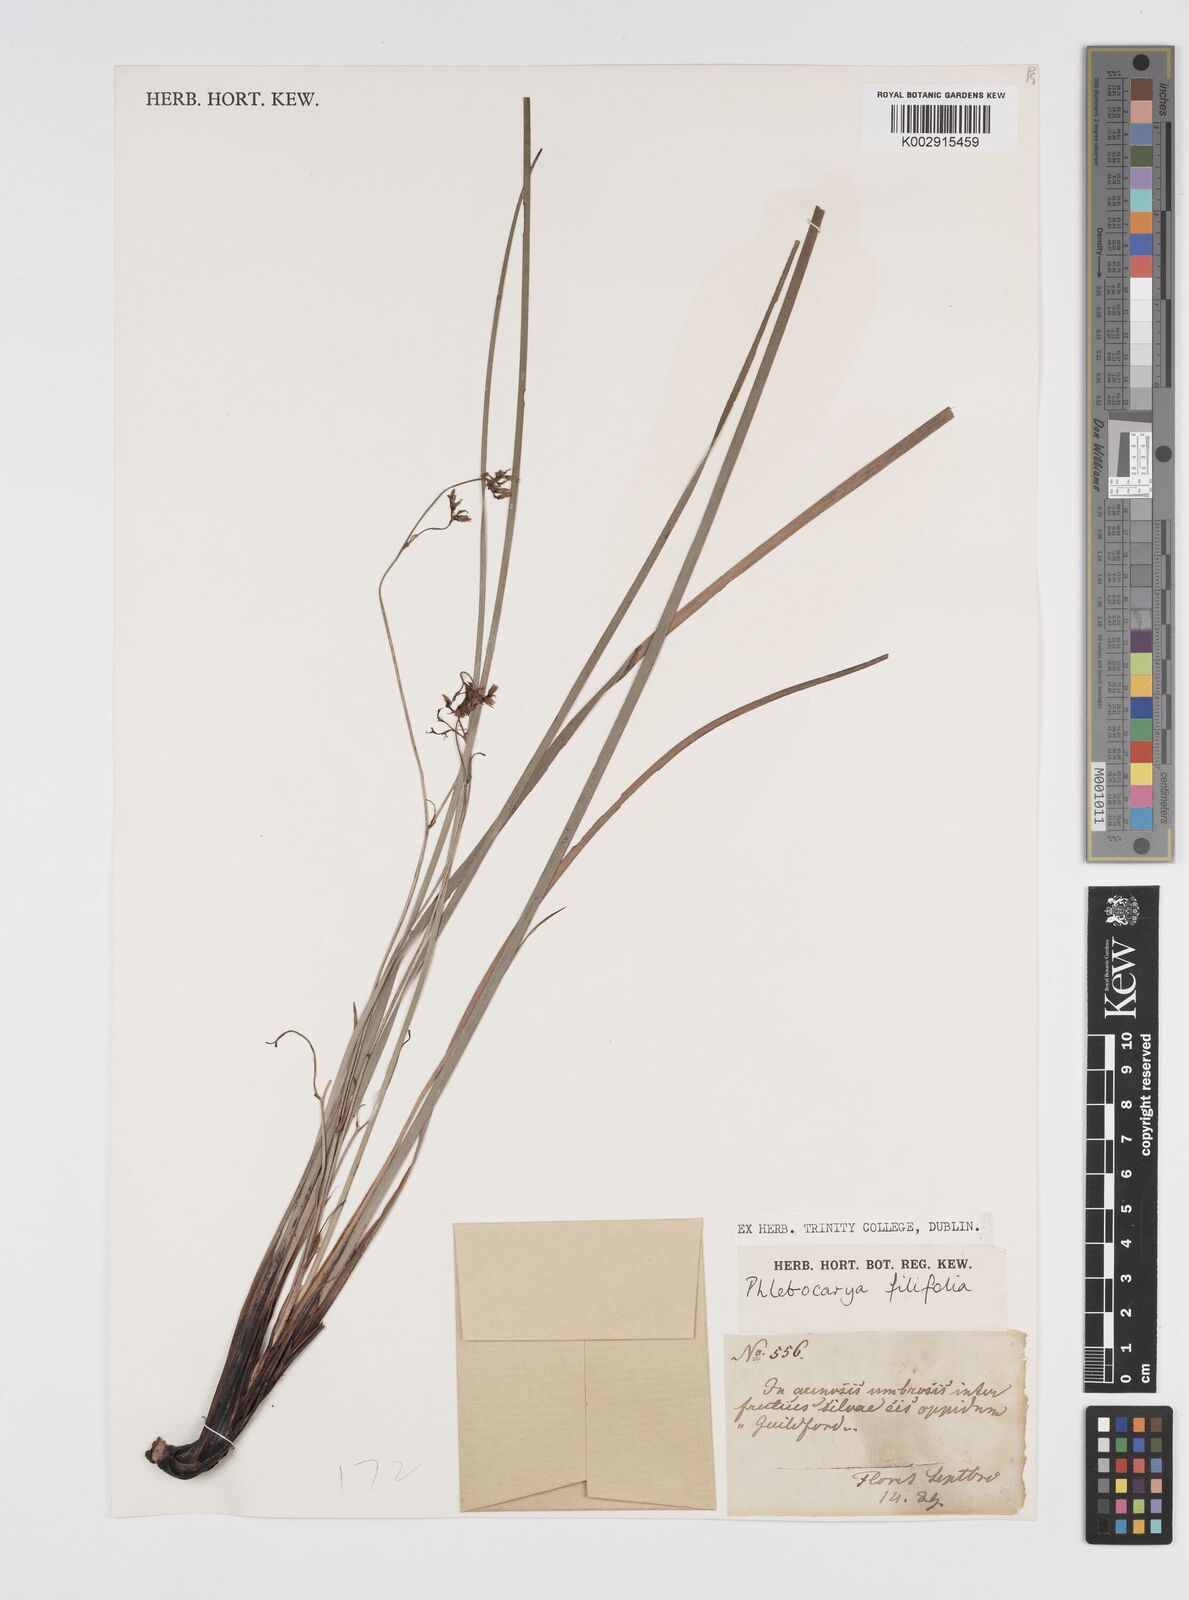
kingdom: Plantae
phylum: Tracheophyta
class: Liliopsida
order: Commelinales
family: Haemodoraceae
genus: Phlebocarya
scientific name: Phlebocarya filifolia
